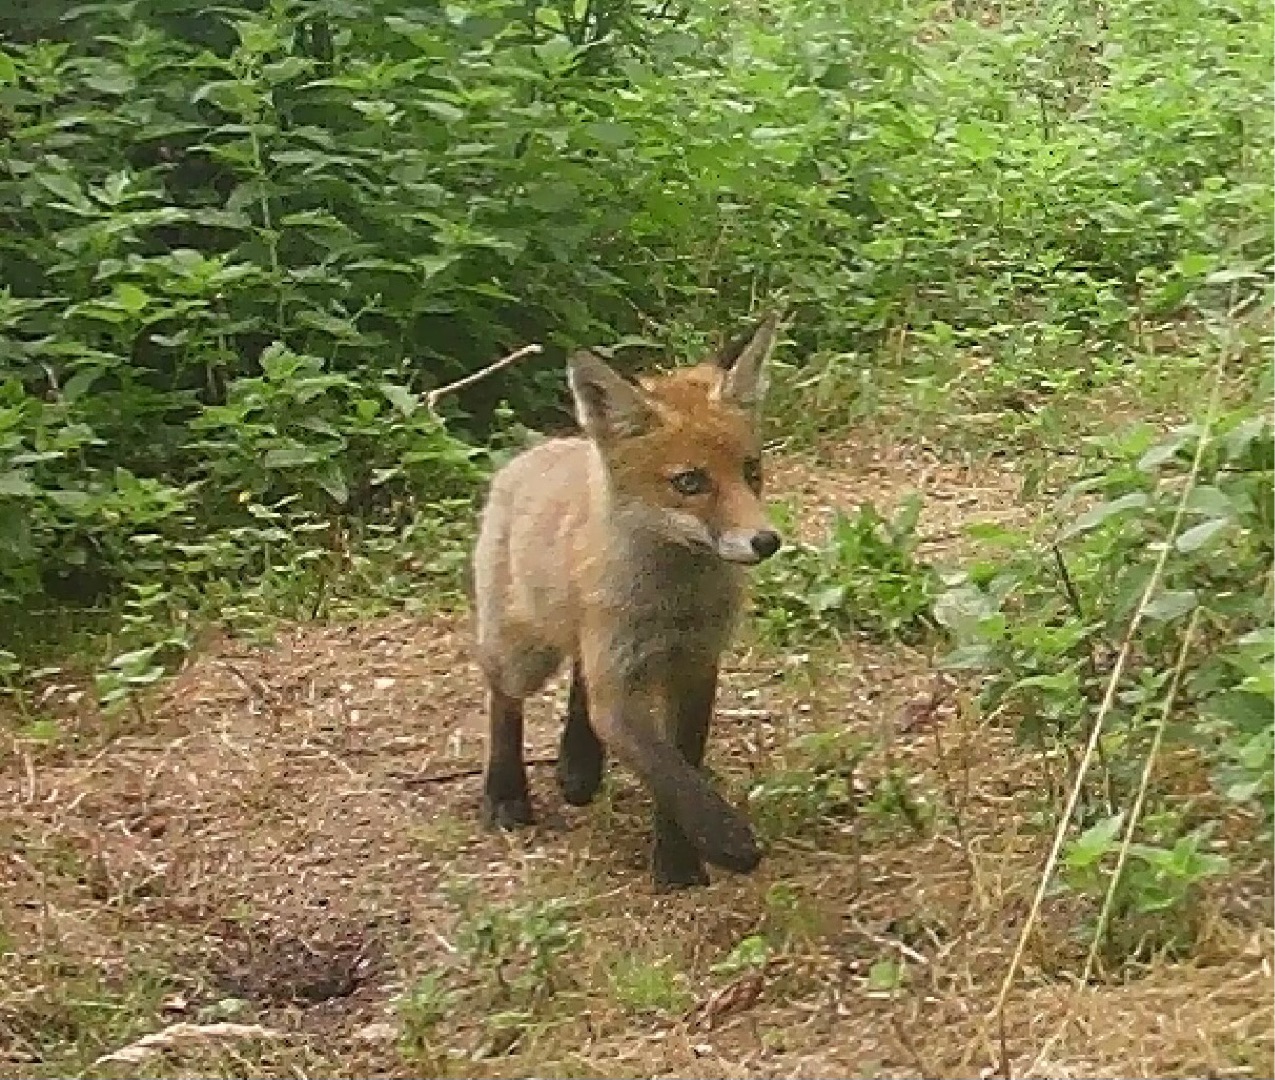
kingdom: Animalia
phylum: Chordata
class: Mammalia
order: Carnivora
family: Canidae
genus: Vulpes
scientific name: Vulpes vulpes
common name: Ræv
